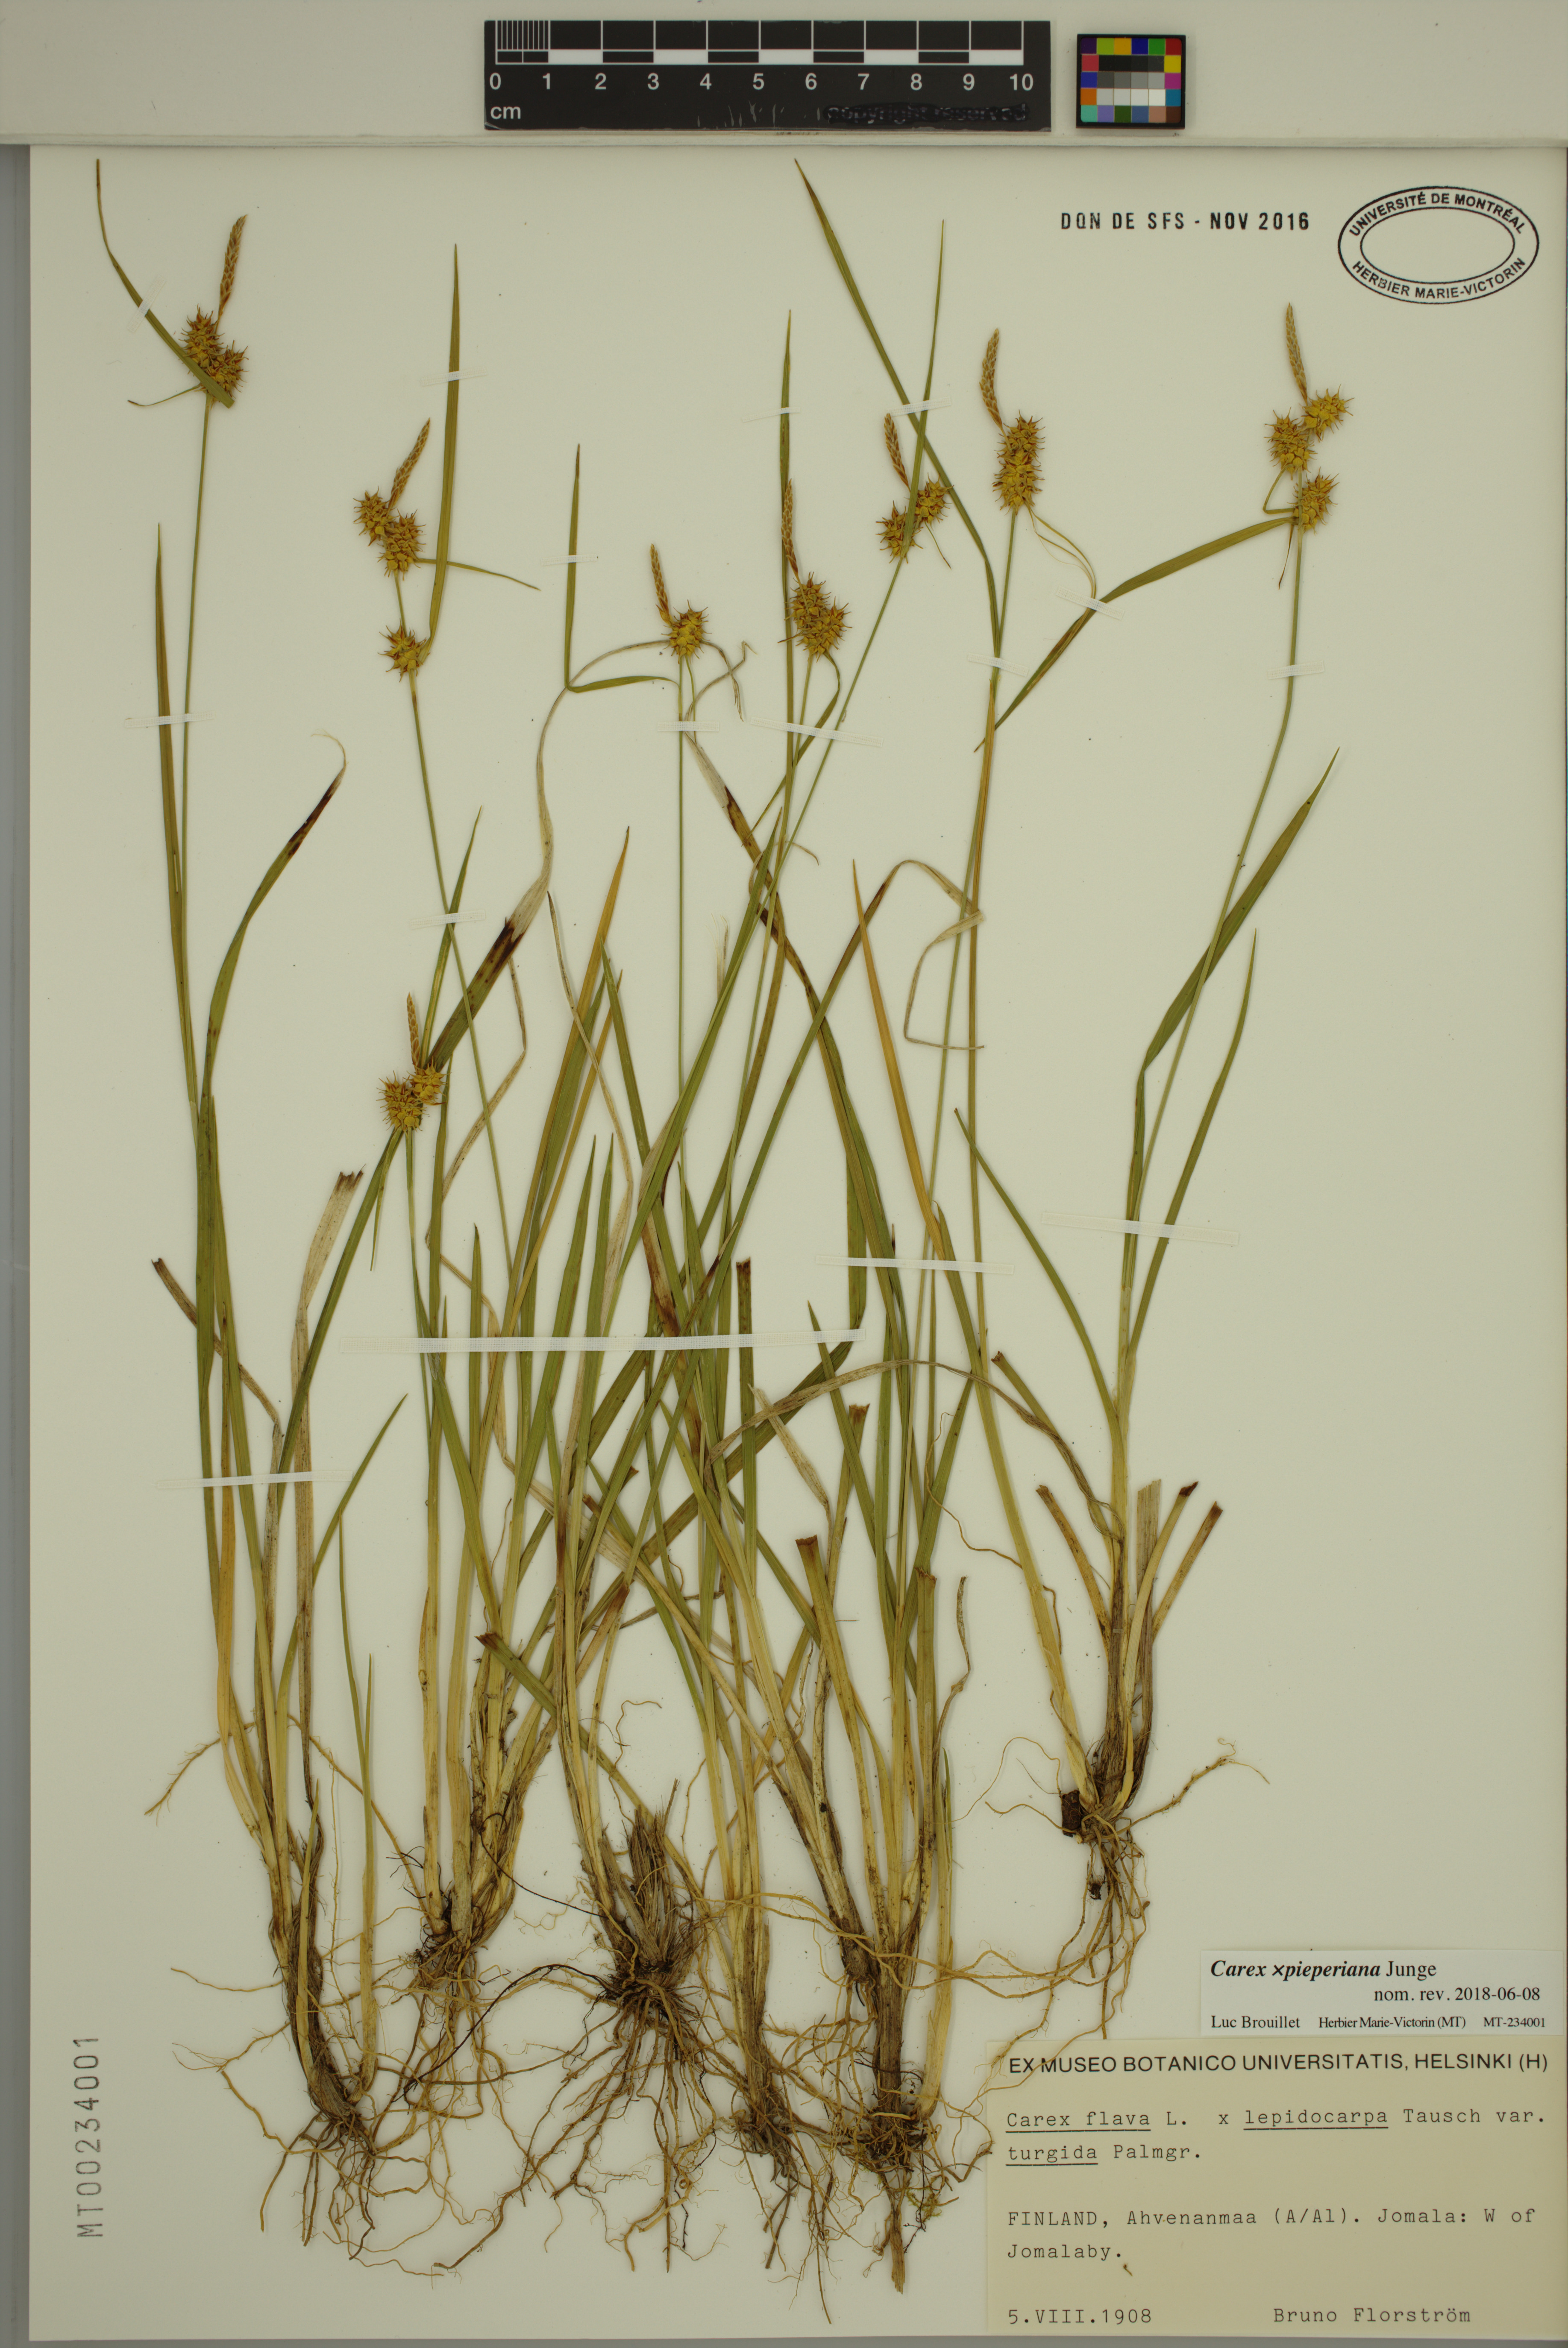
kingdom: Plantae
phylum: Tracheophyta
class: Liliopsida
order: Poales
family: Cyperaceae
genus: Carex
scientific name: Carex ruedtii
